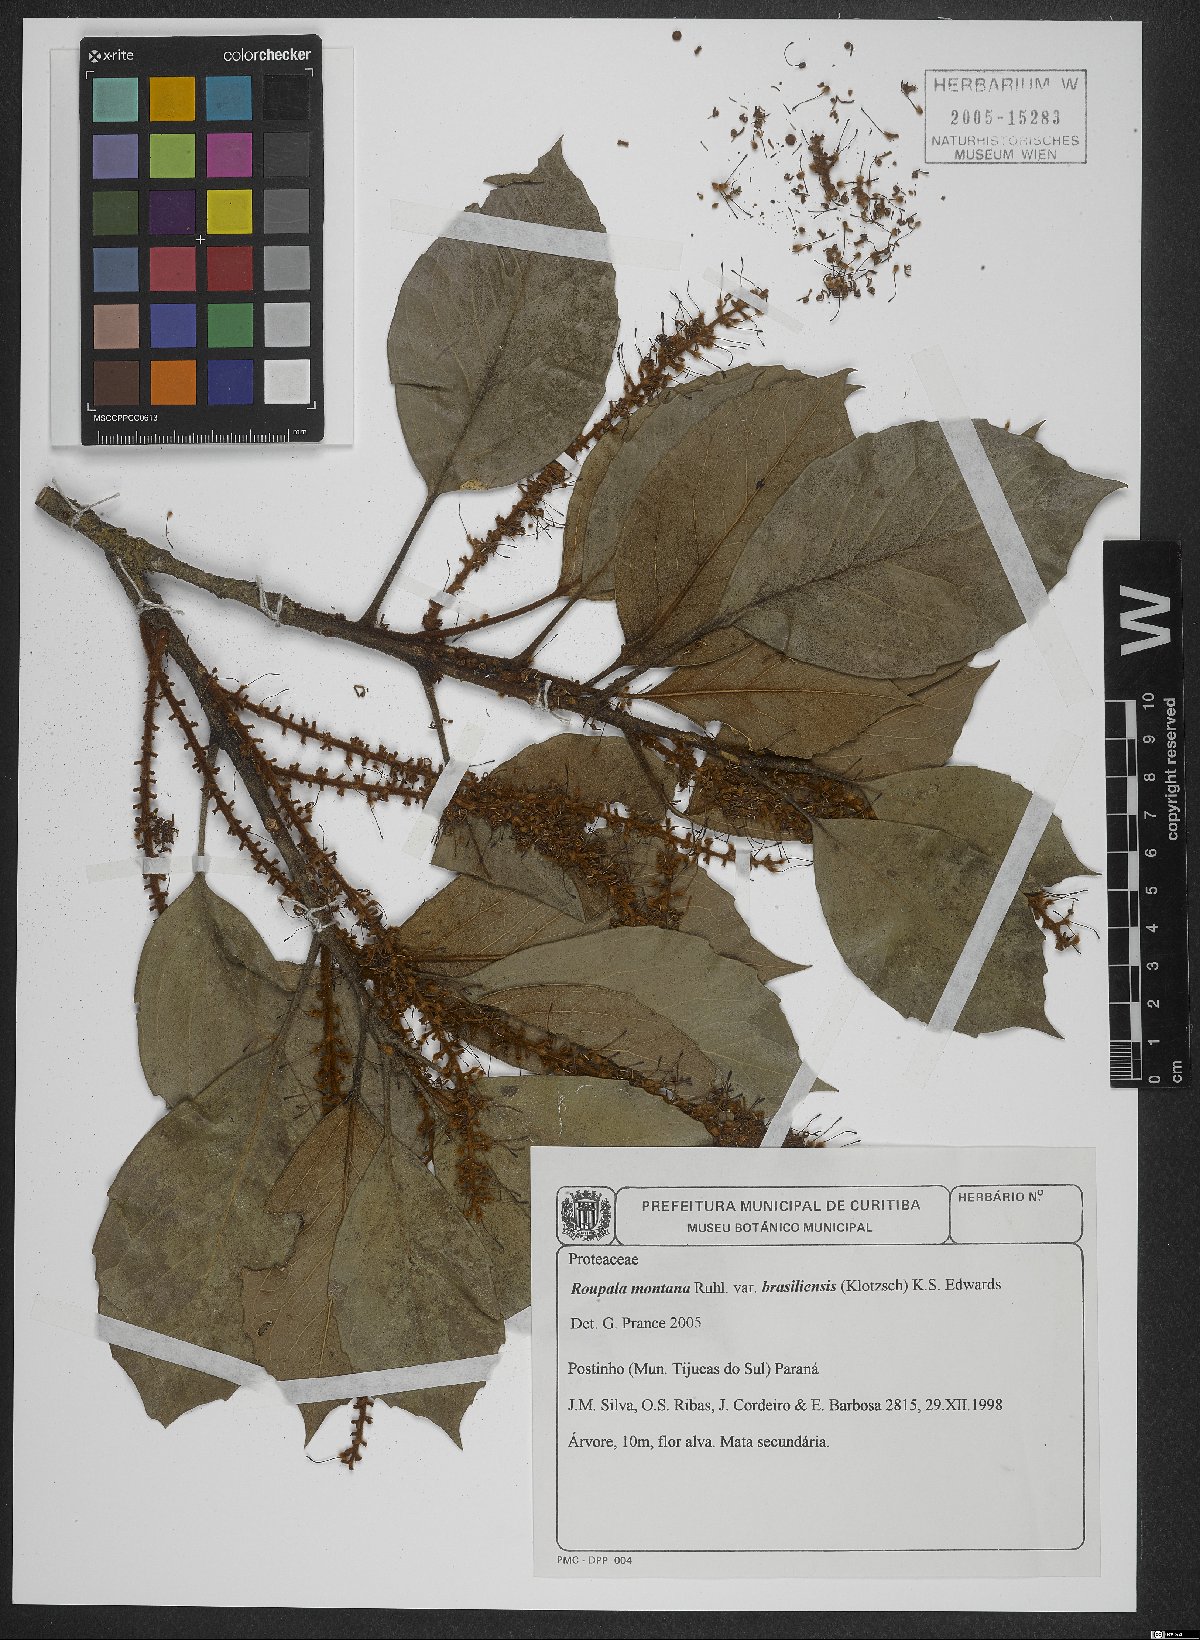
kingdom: Plantae
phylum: Tracheophyta
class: Magnoliopsida
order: Proteales
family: Proteaceae
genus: Roupala
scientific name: Roupala montana
